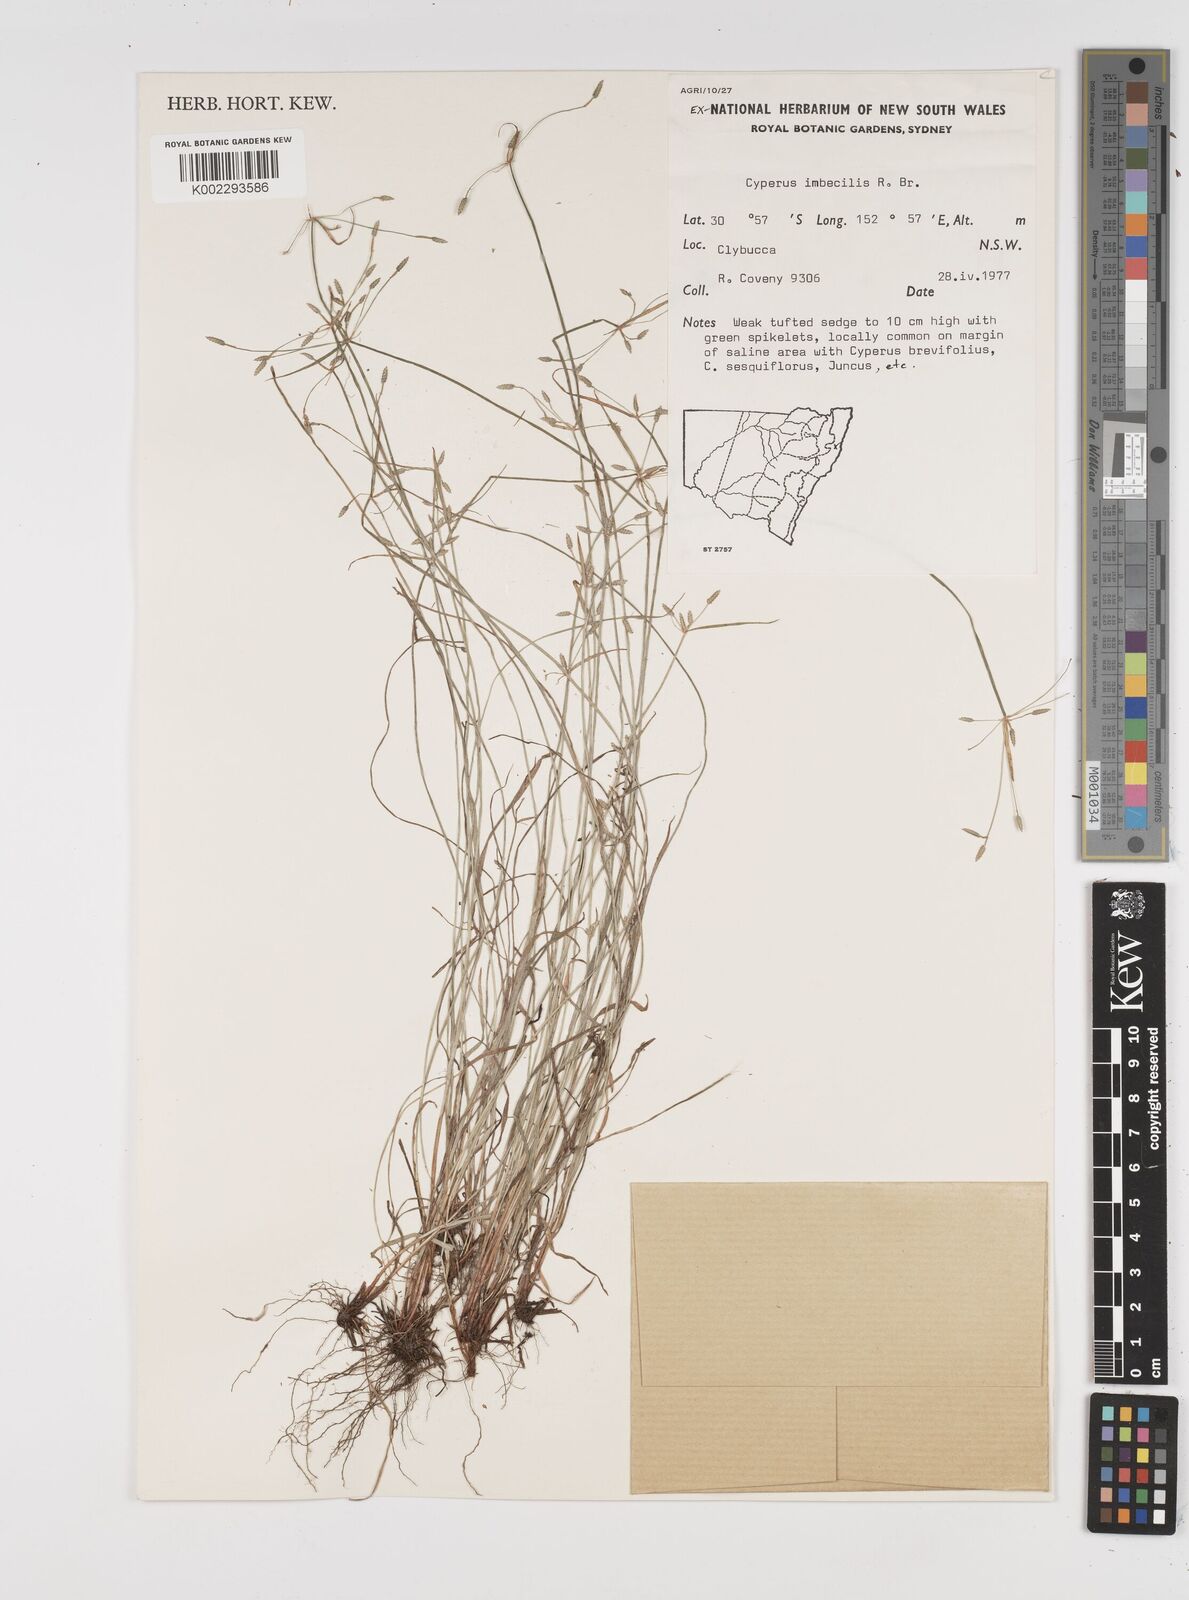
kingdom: Plantae
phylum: Tracheophyta
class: Liliopsida
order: Poales
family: Cyperaceae
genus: Cyperus
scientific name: Cyperus trinervis
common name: Australian flatsedge
